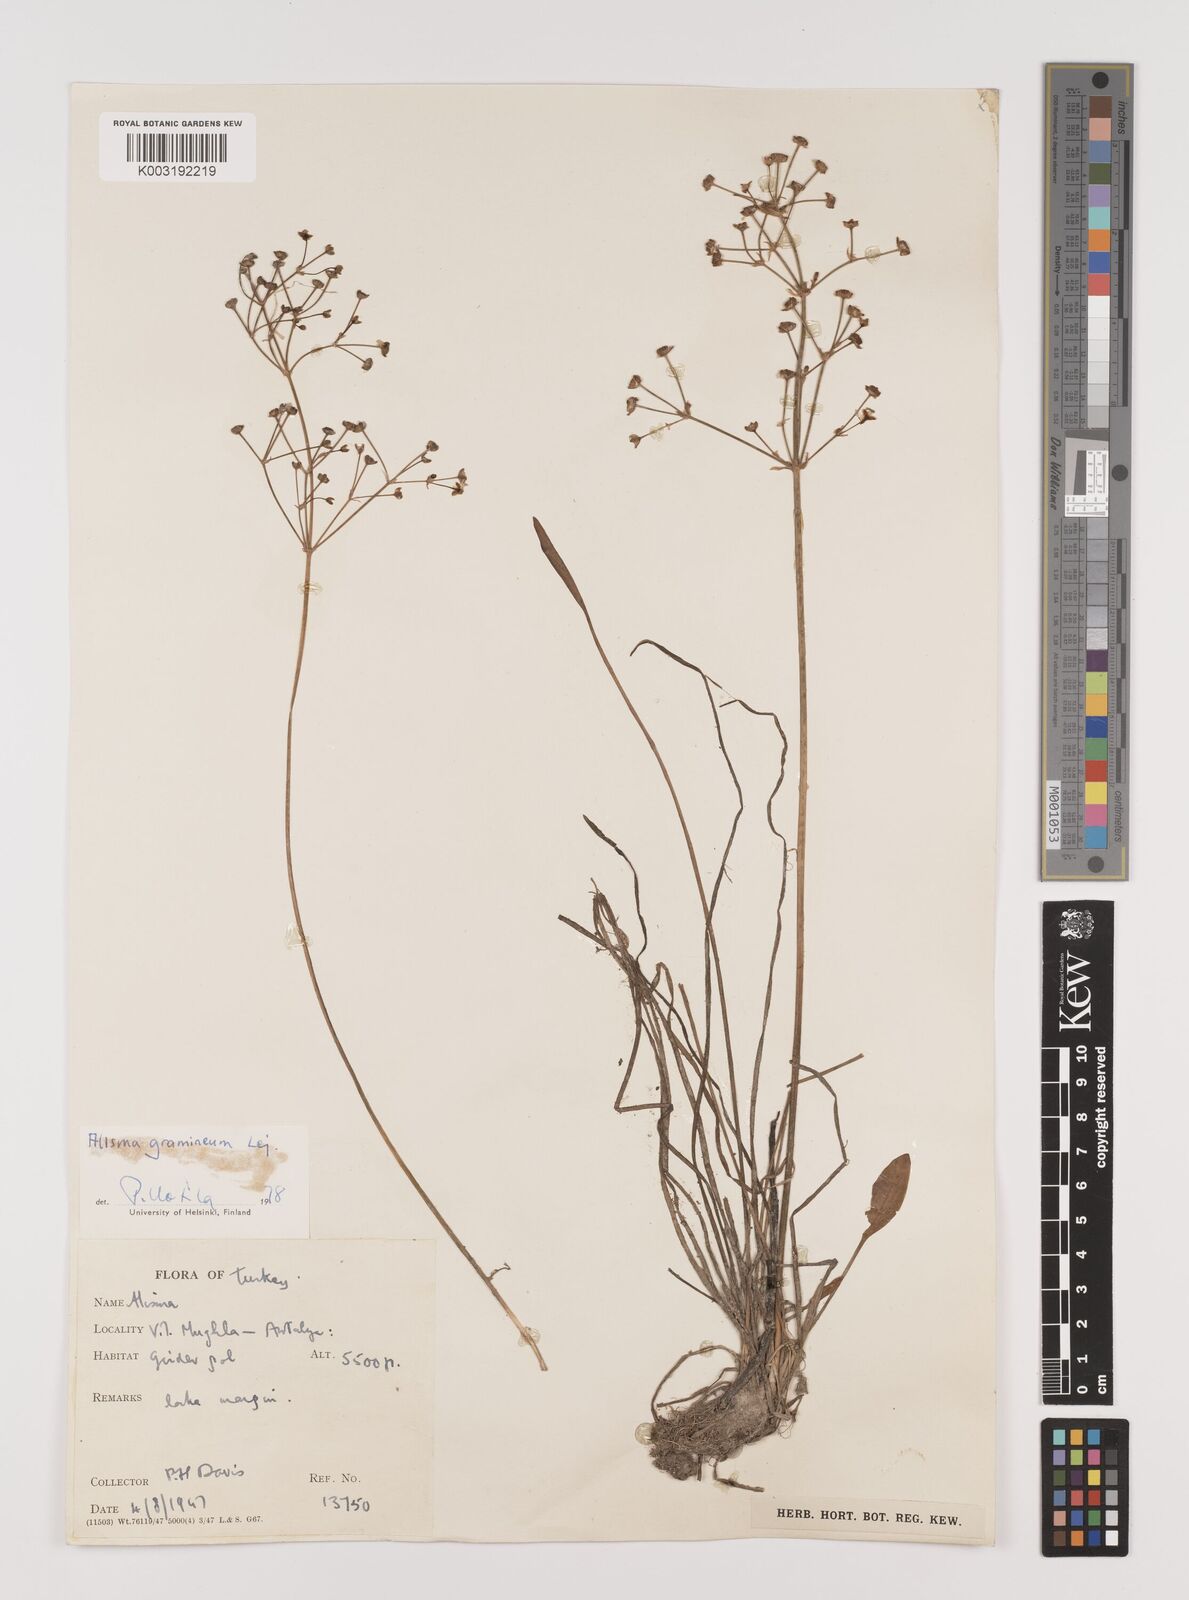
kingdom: Plantae
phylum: Tracheophyta
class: Liliopsida
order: Alismatales
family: Alismataceae
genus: Alisma
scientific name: Alisma gramineum
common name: Ribbon-leaved water-plantain
